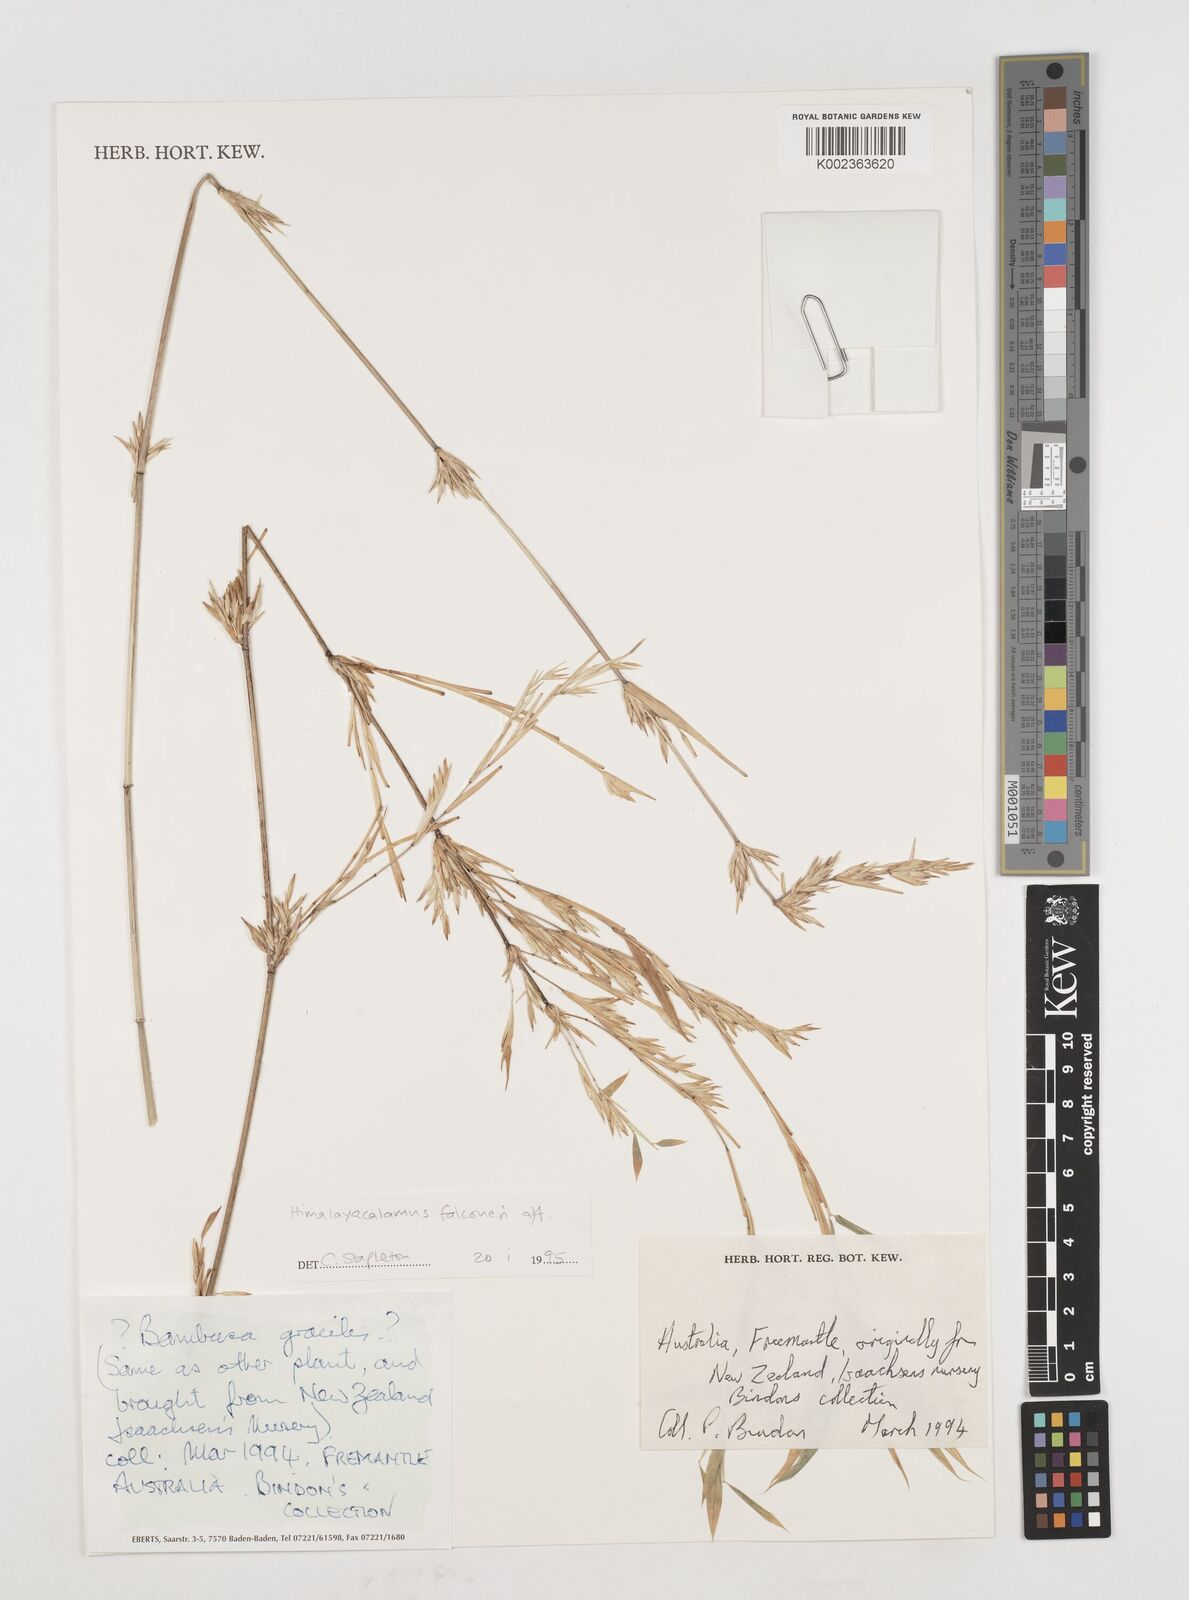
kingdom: Plantae
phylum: Tracheophyta
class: Liliopsida
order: Poales
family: Poaceae
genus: Himalayacalamus
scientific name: Himalayacalamus falconeri
